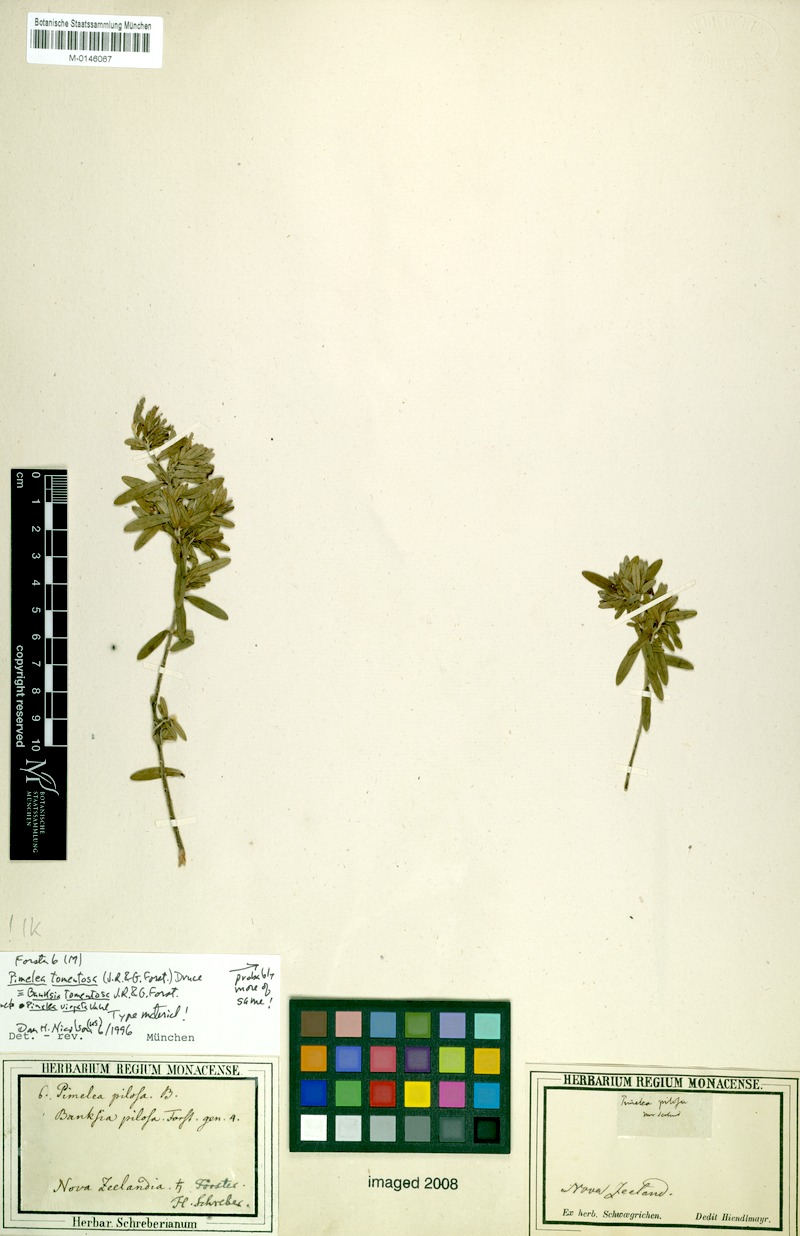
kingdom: Plantae
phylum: Tracheophyta
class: Magnoliopsida
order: Malvales
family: Thymelaeaceae
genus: Pimelea
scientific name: Pimelea tomentosa
